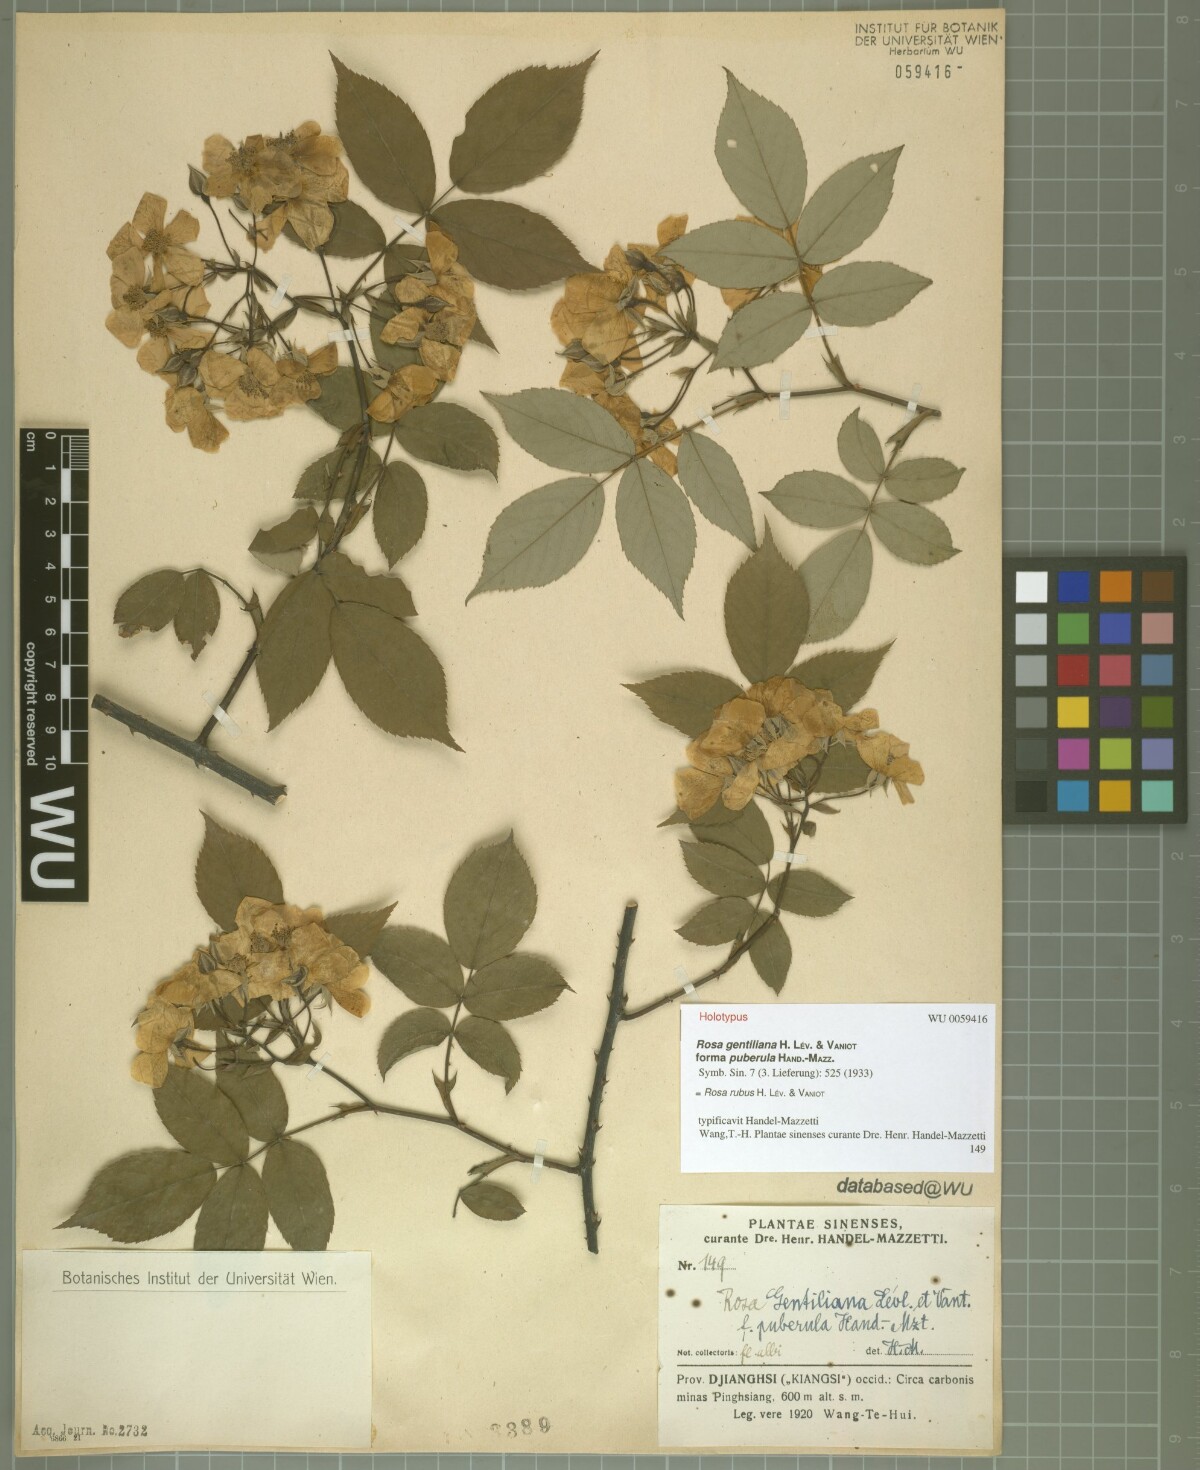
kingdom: Plantae
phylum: Tracheophyta
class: Magnoliopsida
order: Rosales
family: Rosaceae
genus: Rosa
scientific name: Rosa rubus
